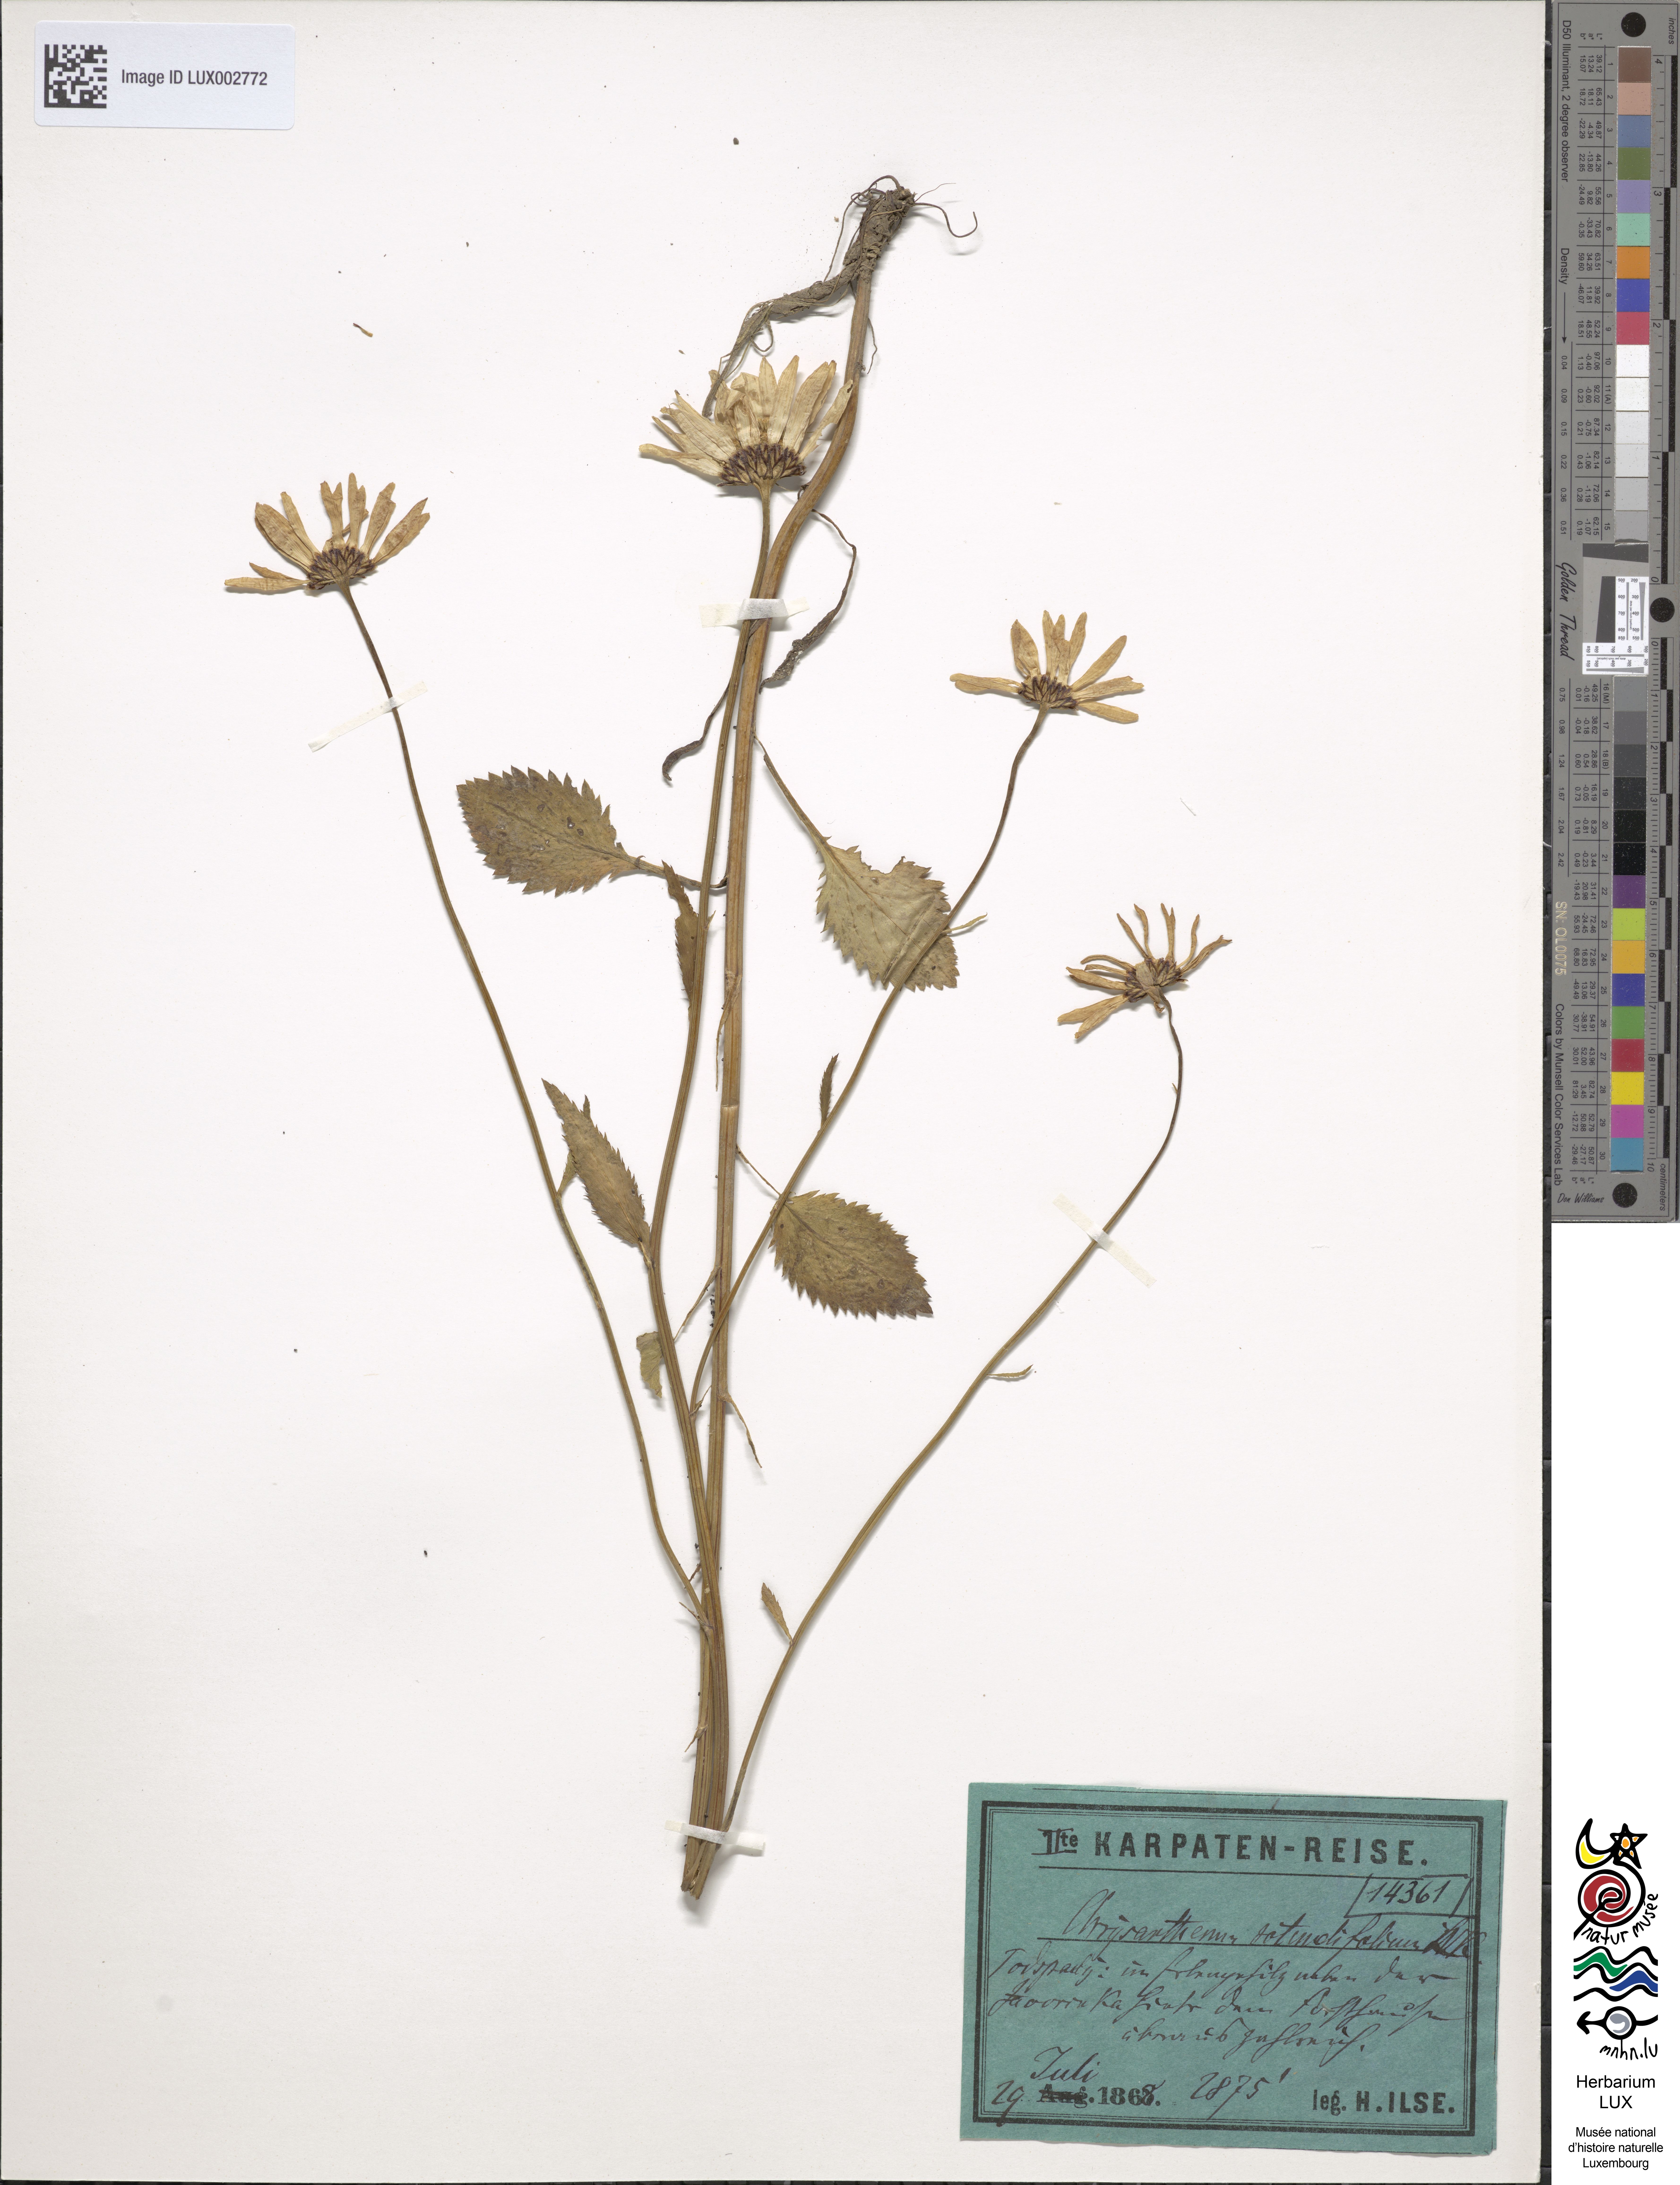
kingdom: Plantae
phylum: Tracheophyta
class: Magnoliopsida
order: Asterales
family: Asteraceae
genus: Leucanthemum
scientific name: Leucanthemum rotundifolium
